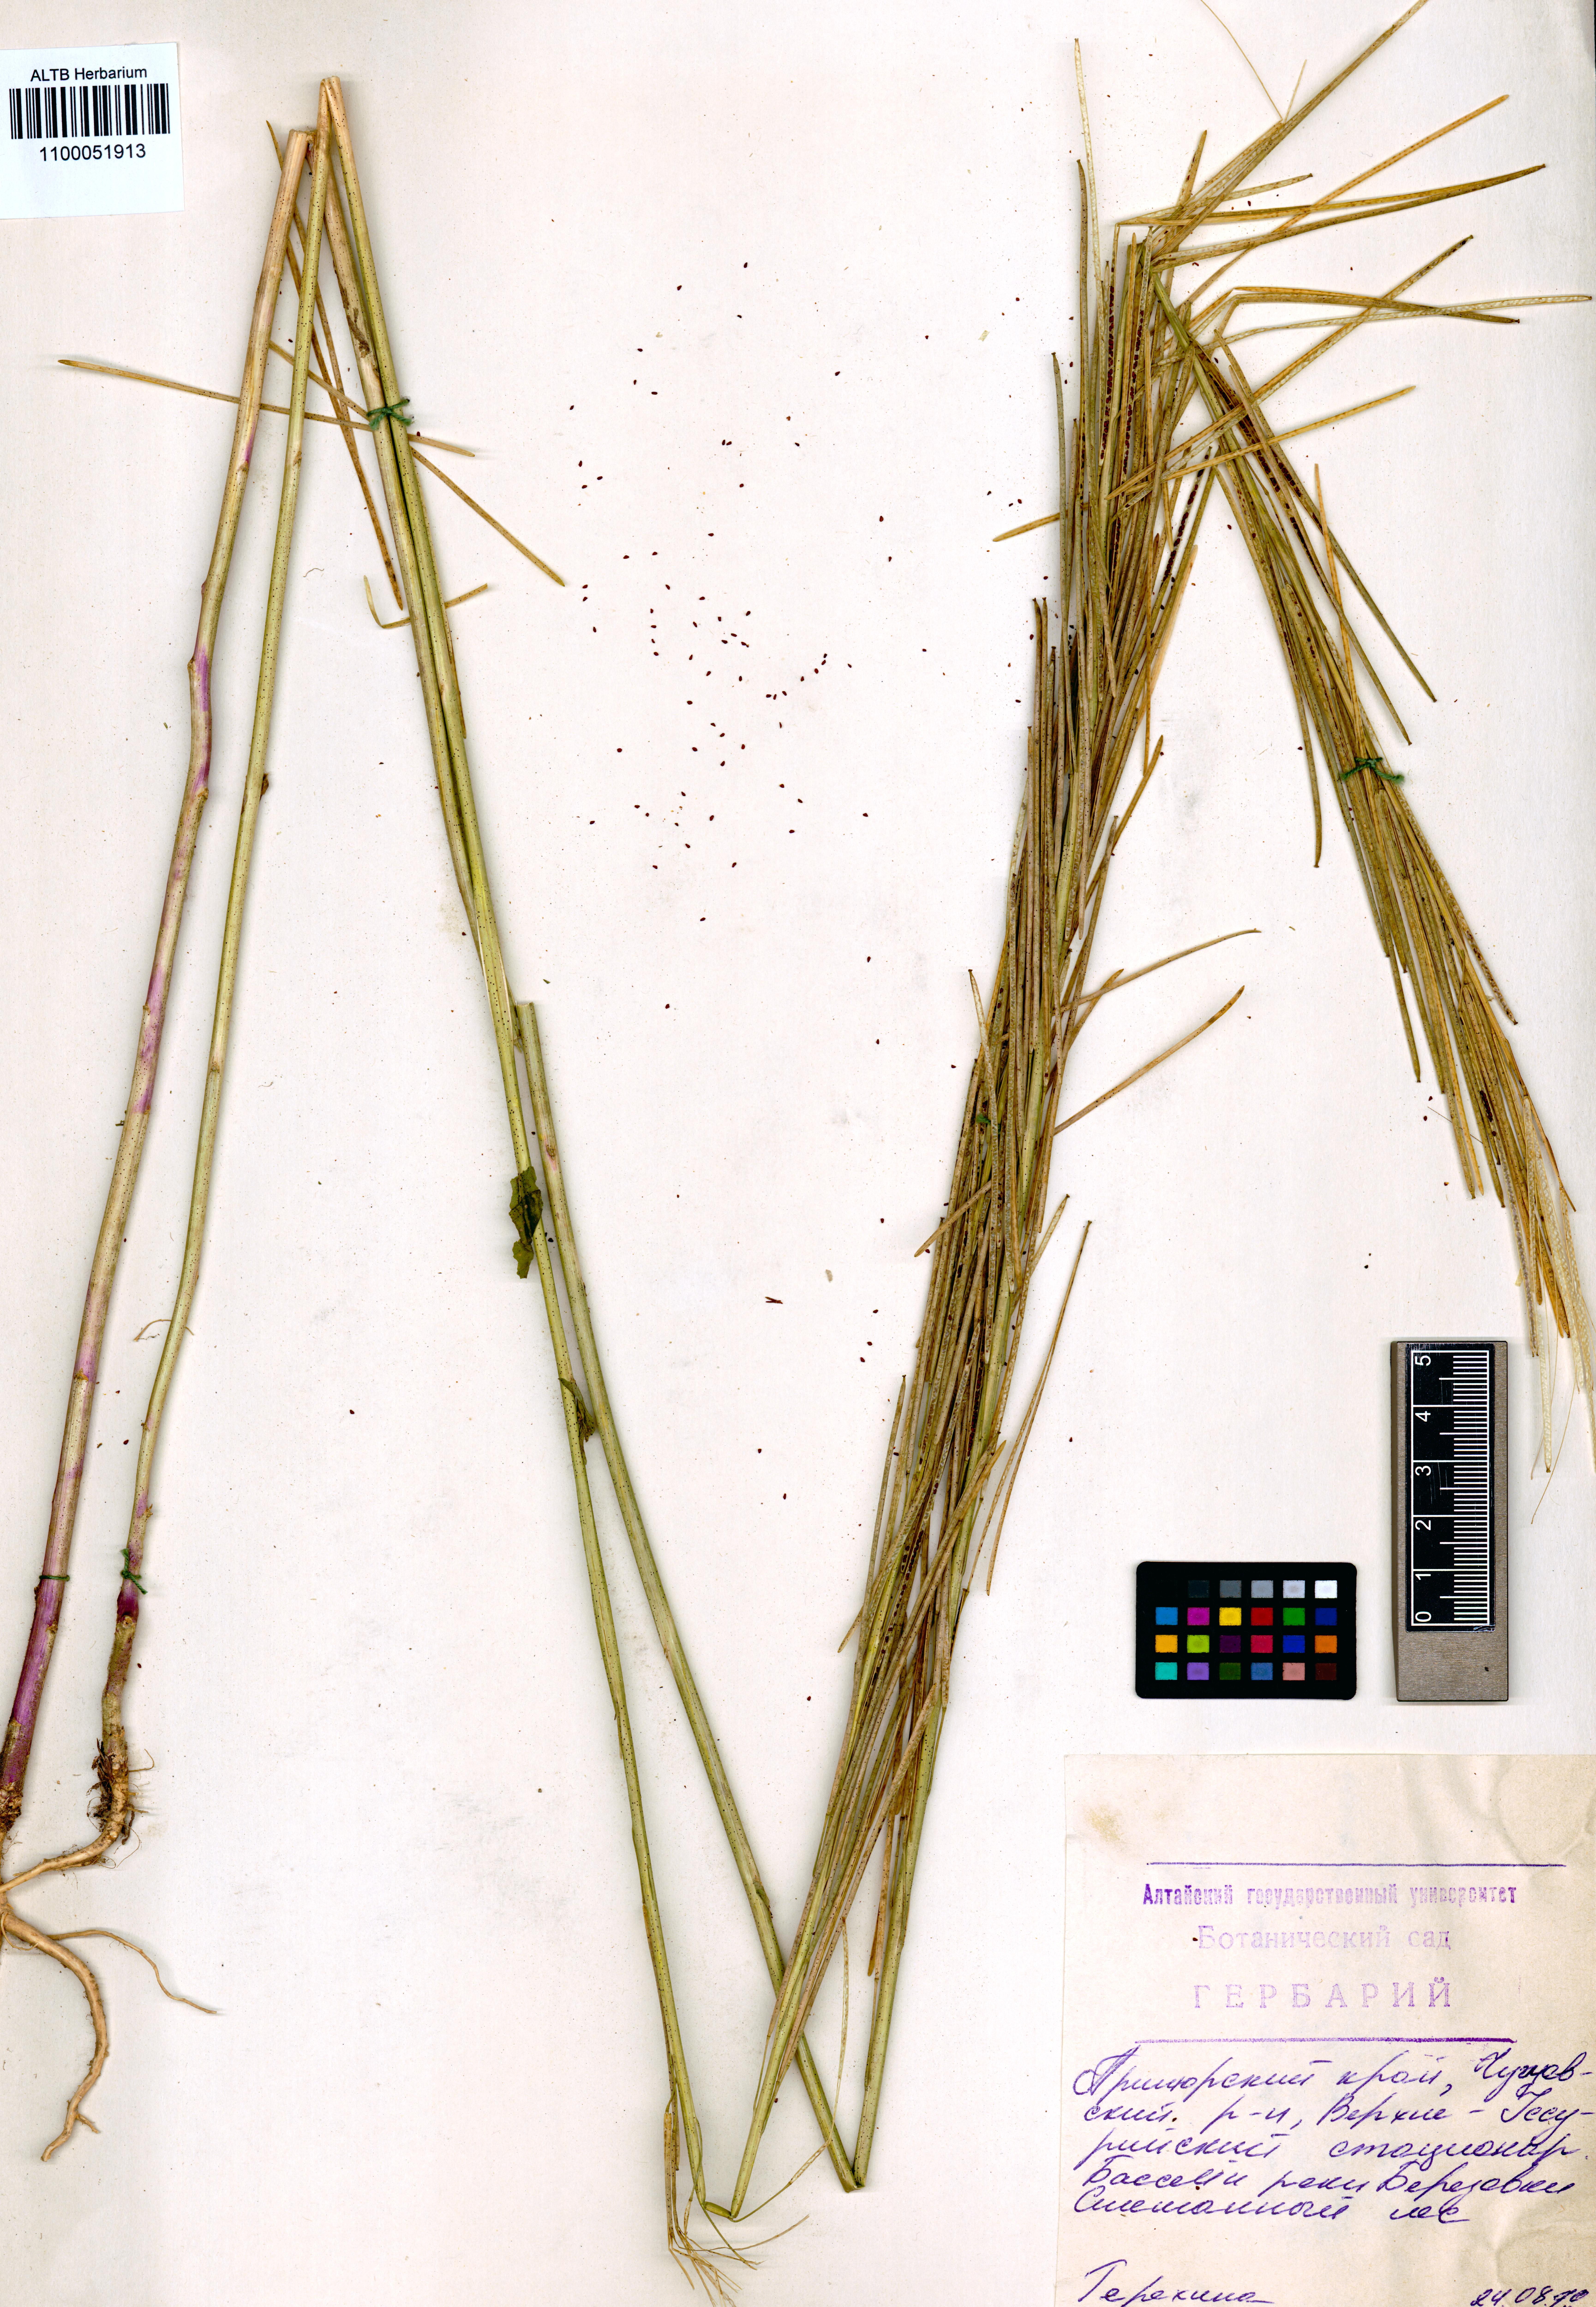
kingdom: Plantae
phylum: Tracheophyta
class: Magnoliopsida
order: Brassicales
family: Brassicaceae
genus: Turritis
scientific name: Turritis glabra
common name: Tower rockcress
